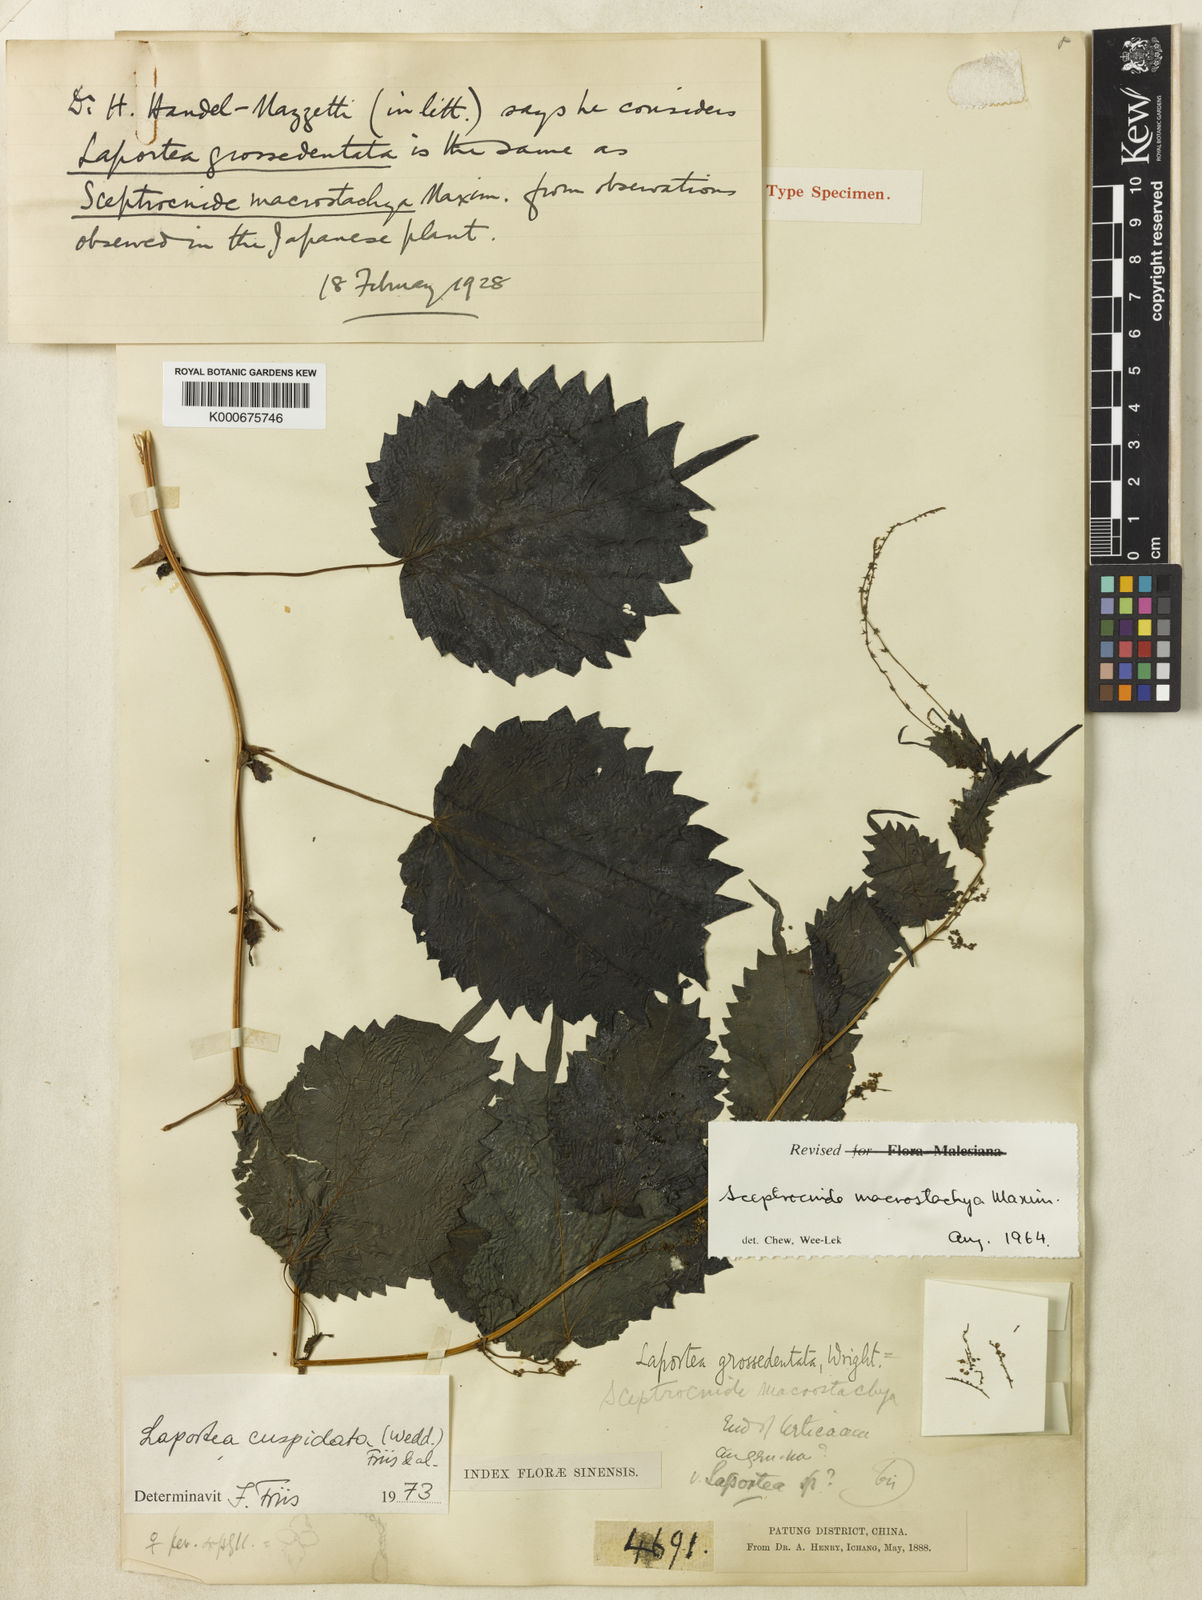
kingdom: Plantae
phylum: Tracheophyta
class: Magnoliopsida
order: Rosales
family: Urticaceae
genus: Laportea
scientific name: Laportea cuspidata
